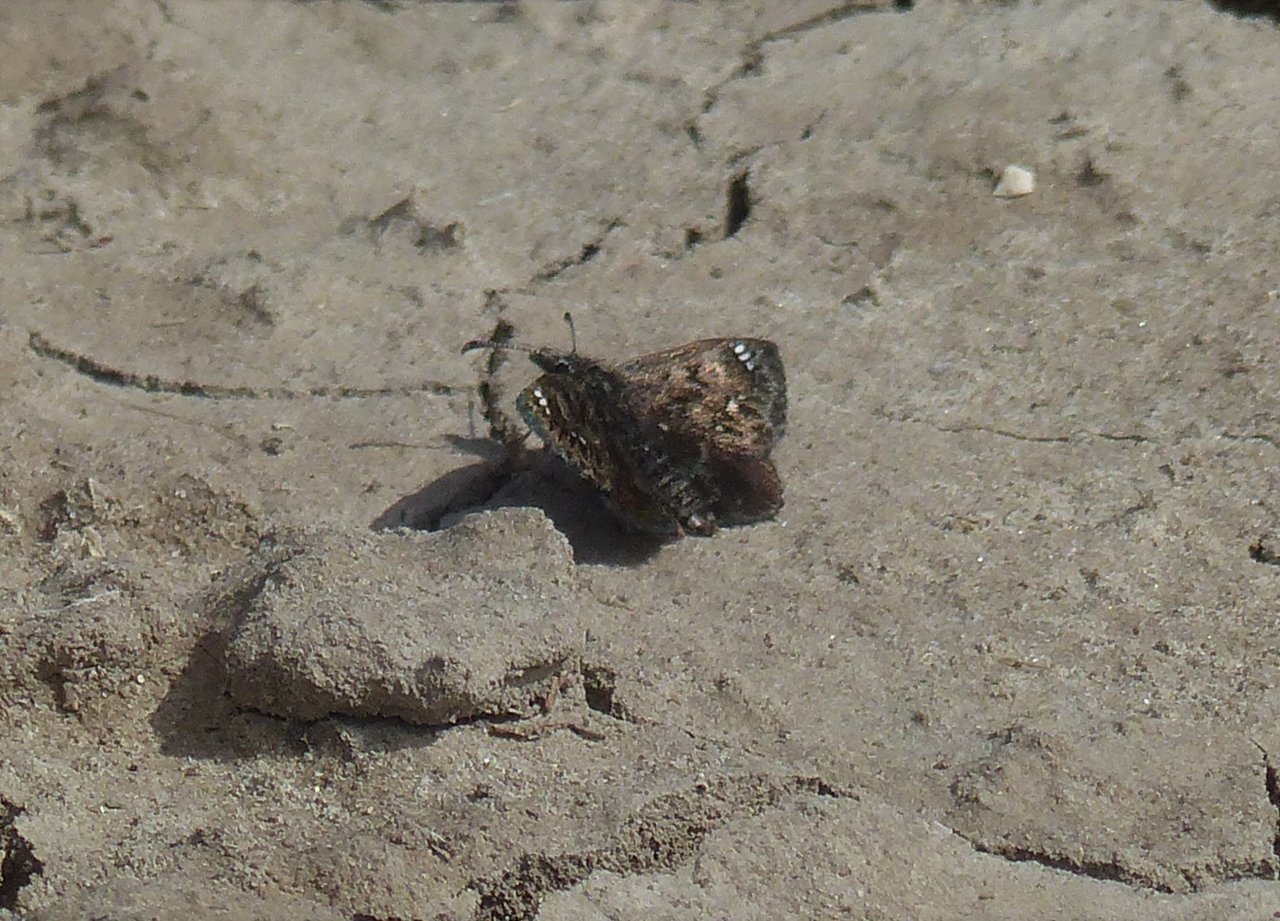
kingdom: Animalia
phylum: Arthropoda
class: Insecta
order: Lepidoptera
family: Hesperiidae
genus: Hesperopsis
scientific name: Hesperopsis alpheus
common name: Saltbush Sootywing
